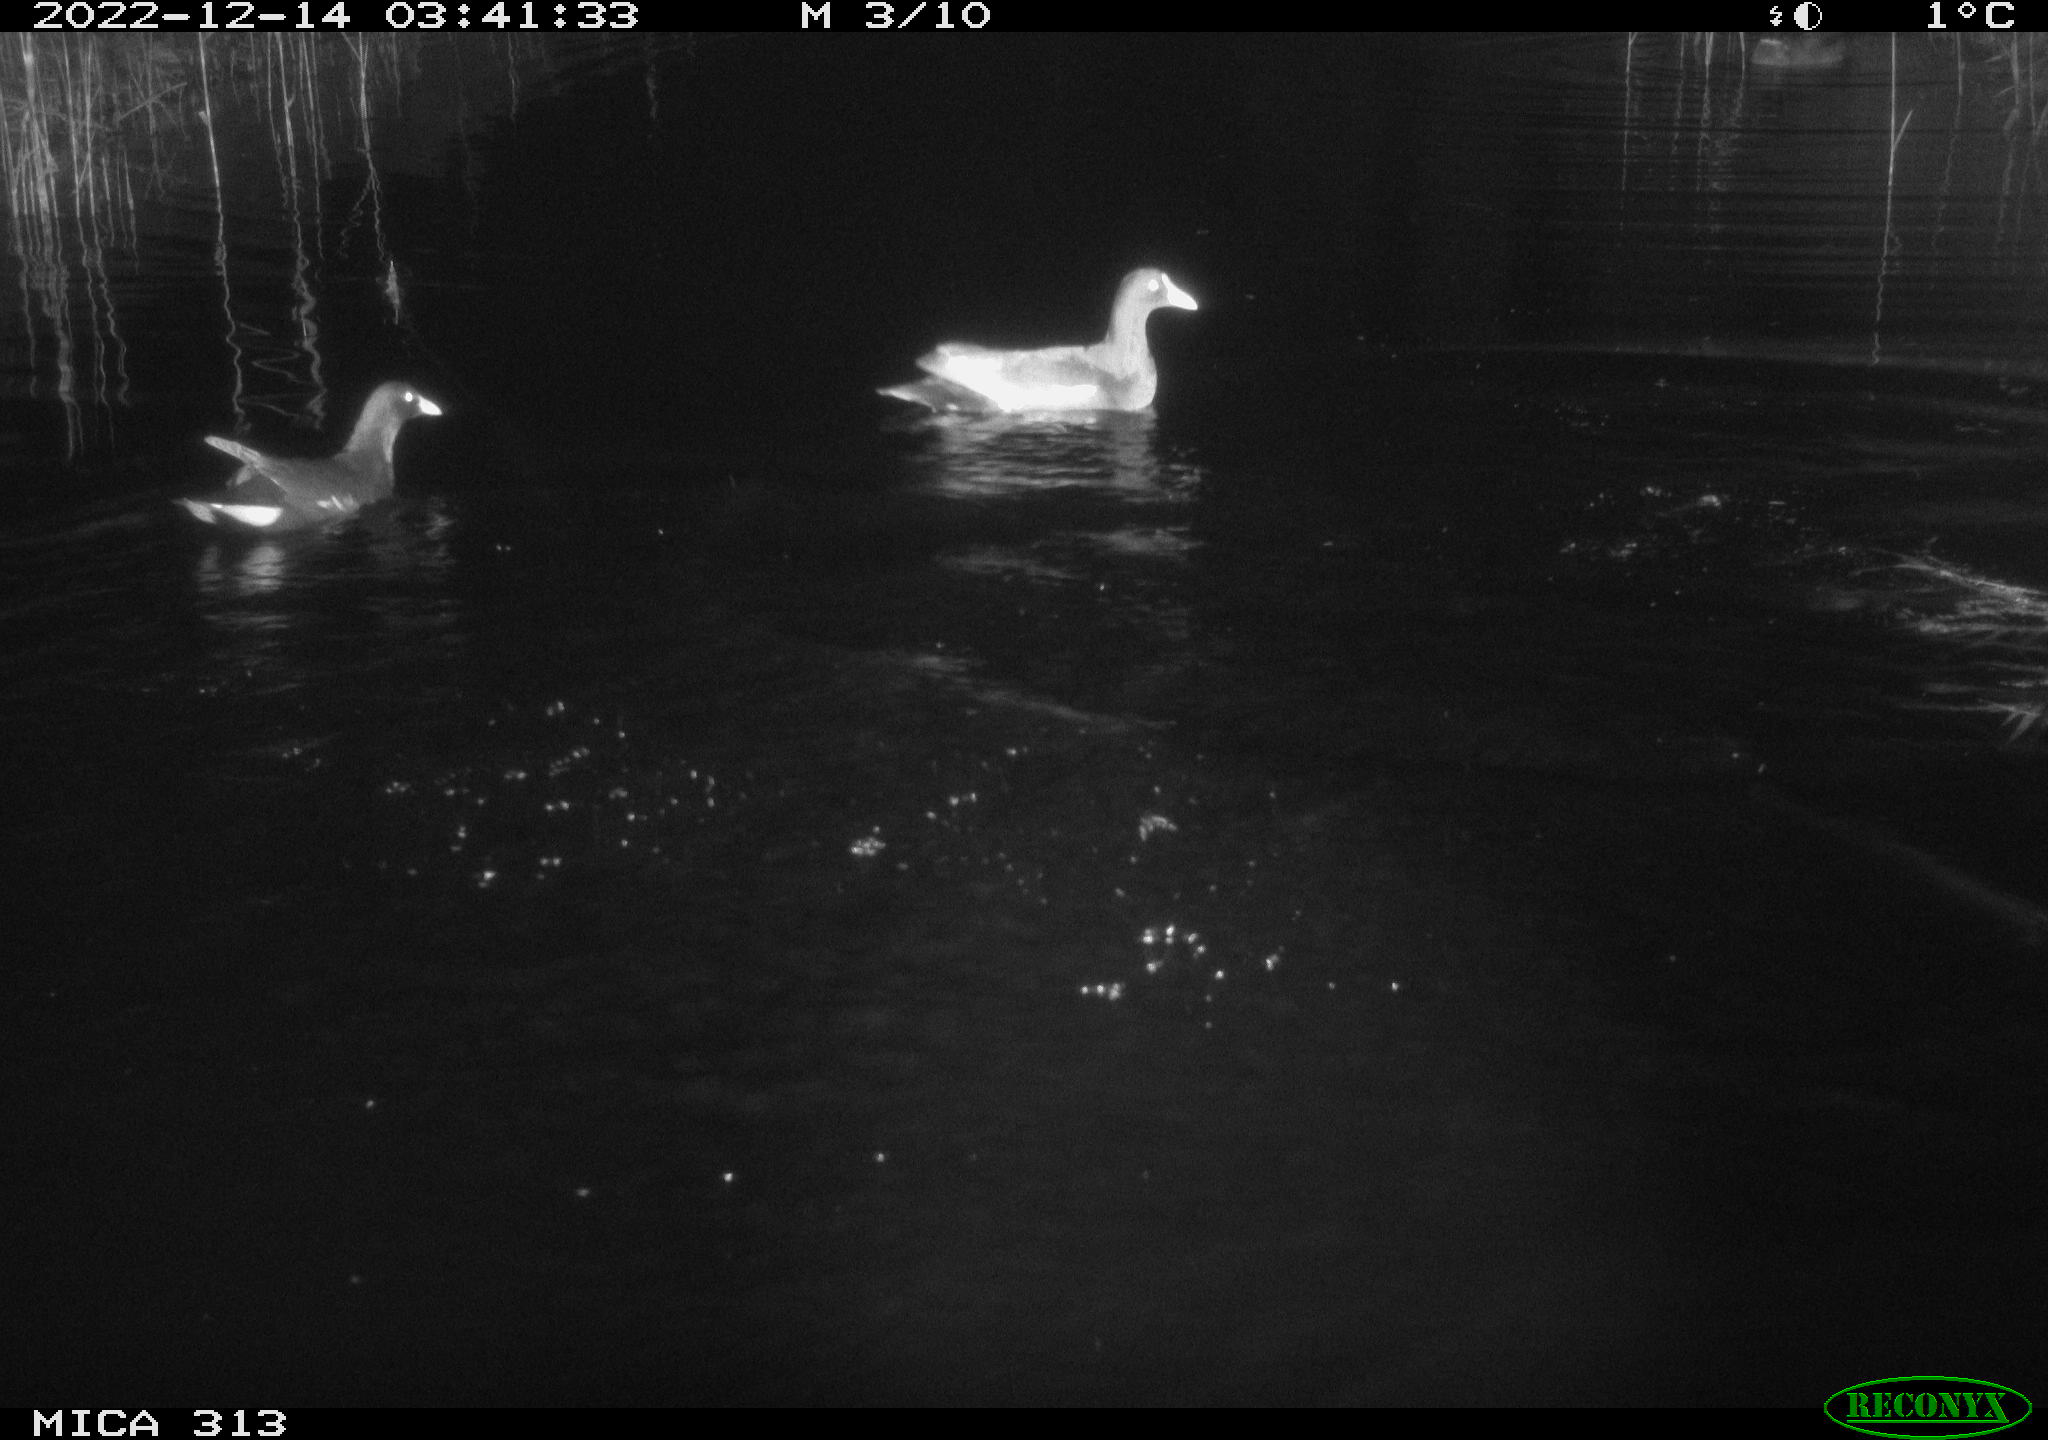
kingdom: Animalia
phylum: Chordata
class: Aves
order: Gruiformes
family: Rallidae
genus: Gallinula
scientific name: Gallinula chloropus
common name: Common moorhen
